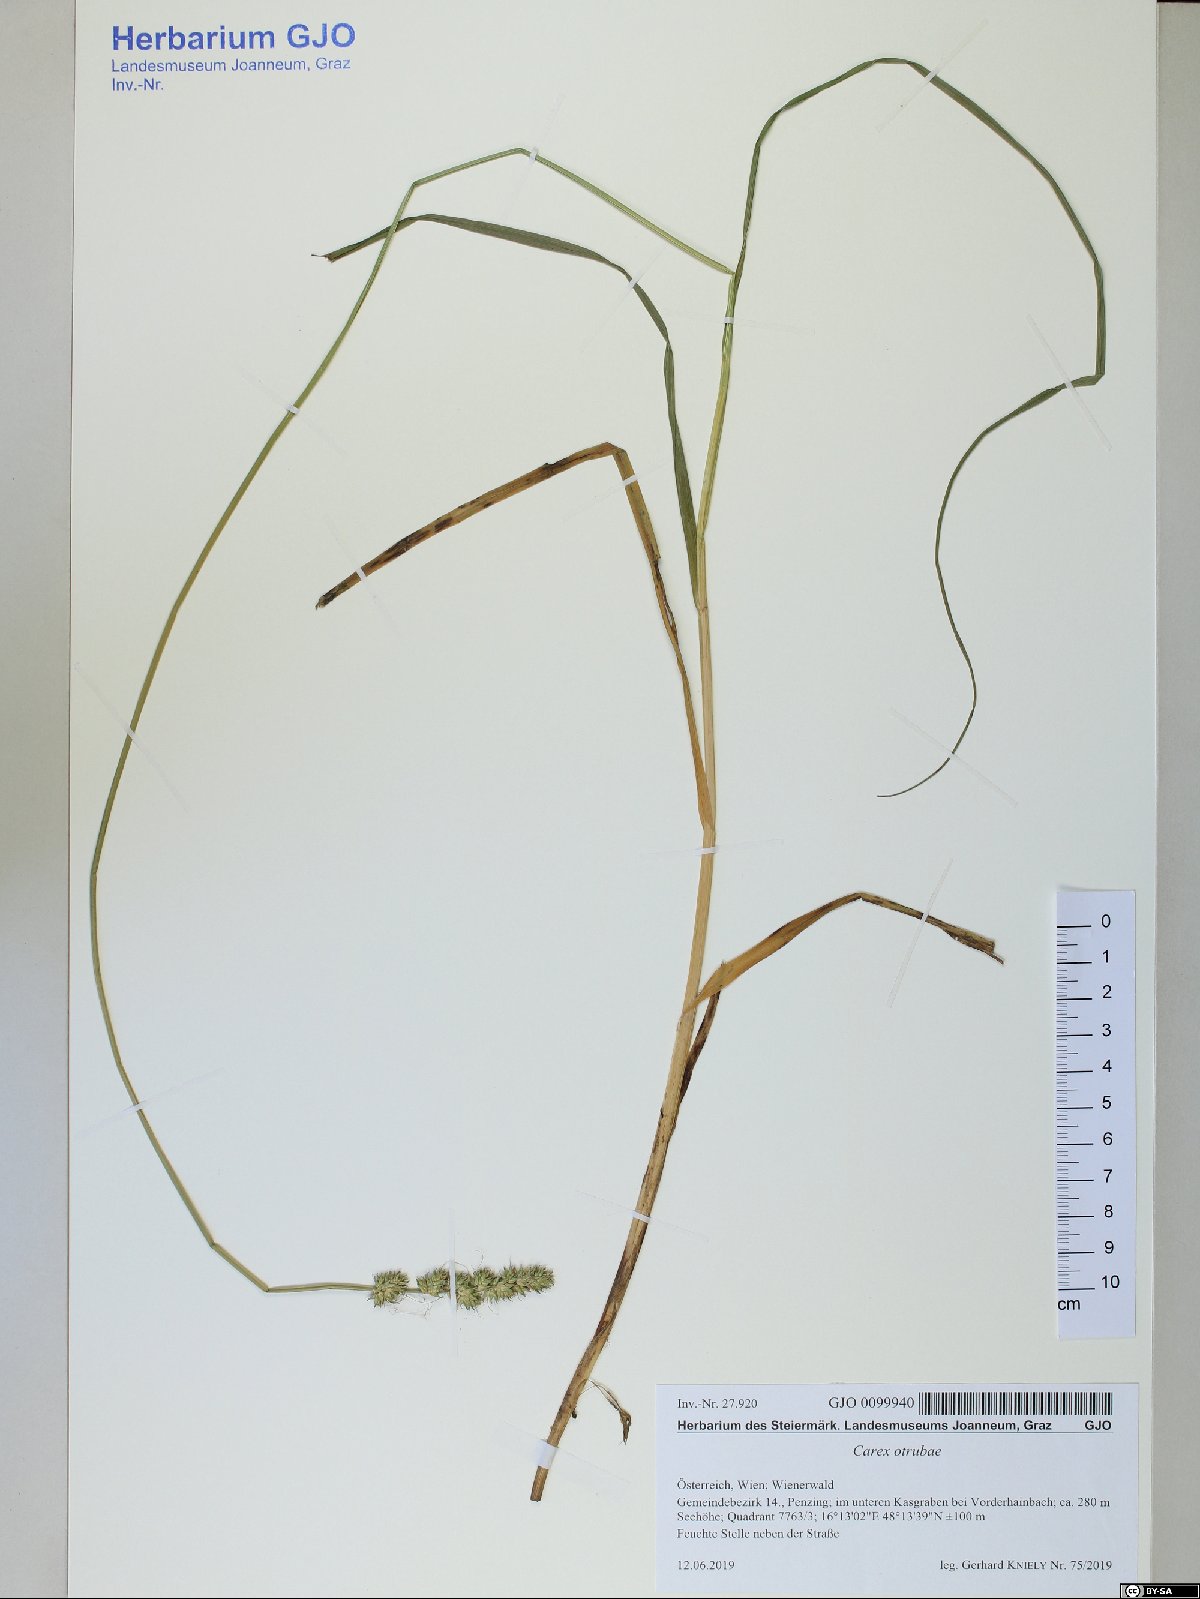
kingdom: Plantae
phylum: Tracheophyta
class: Liliopsida
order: Poales
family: Cyperaceae
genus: Carex
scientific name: Carex otrubae
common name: False fox-sedge
